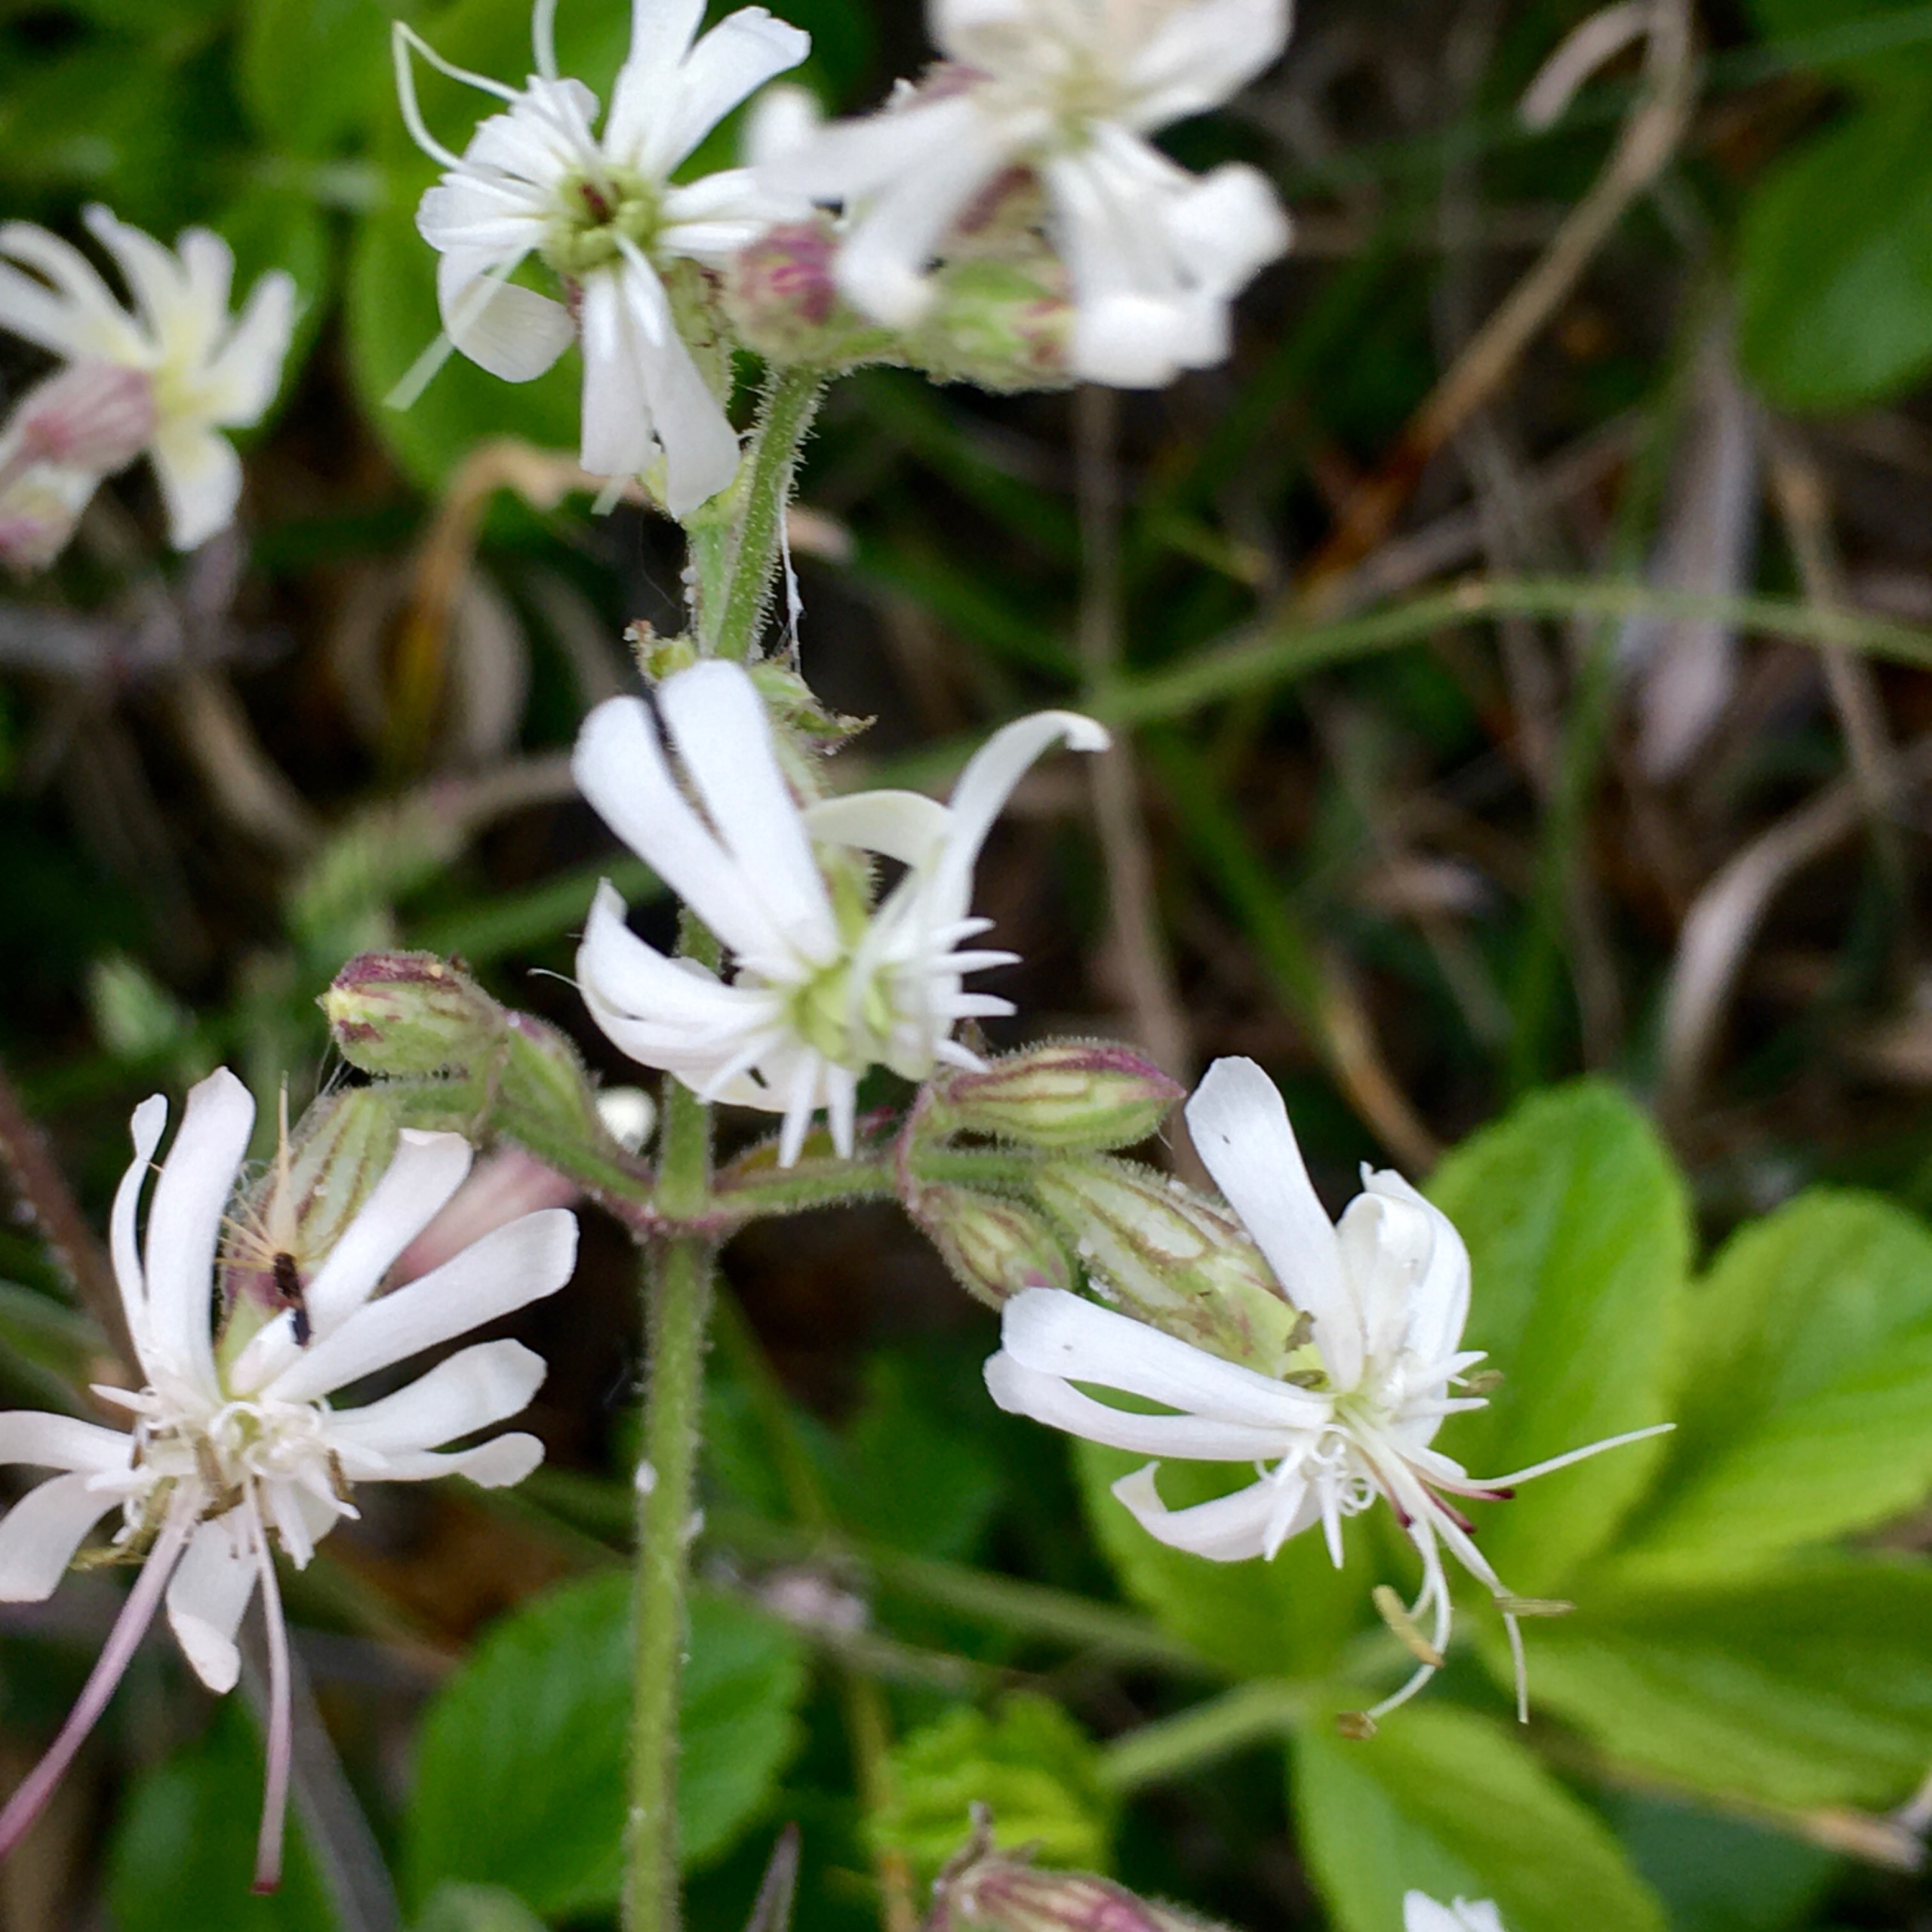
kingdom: Plantae
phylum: Tracheophyta
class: Magnoliopsida
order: Caryophyllales
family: Caryophyllaceae
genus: Silene
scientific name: Silene nutans
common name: Nikkende limurt
